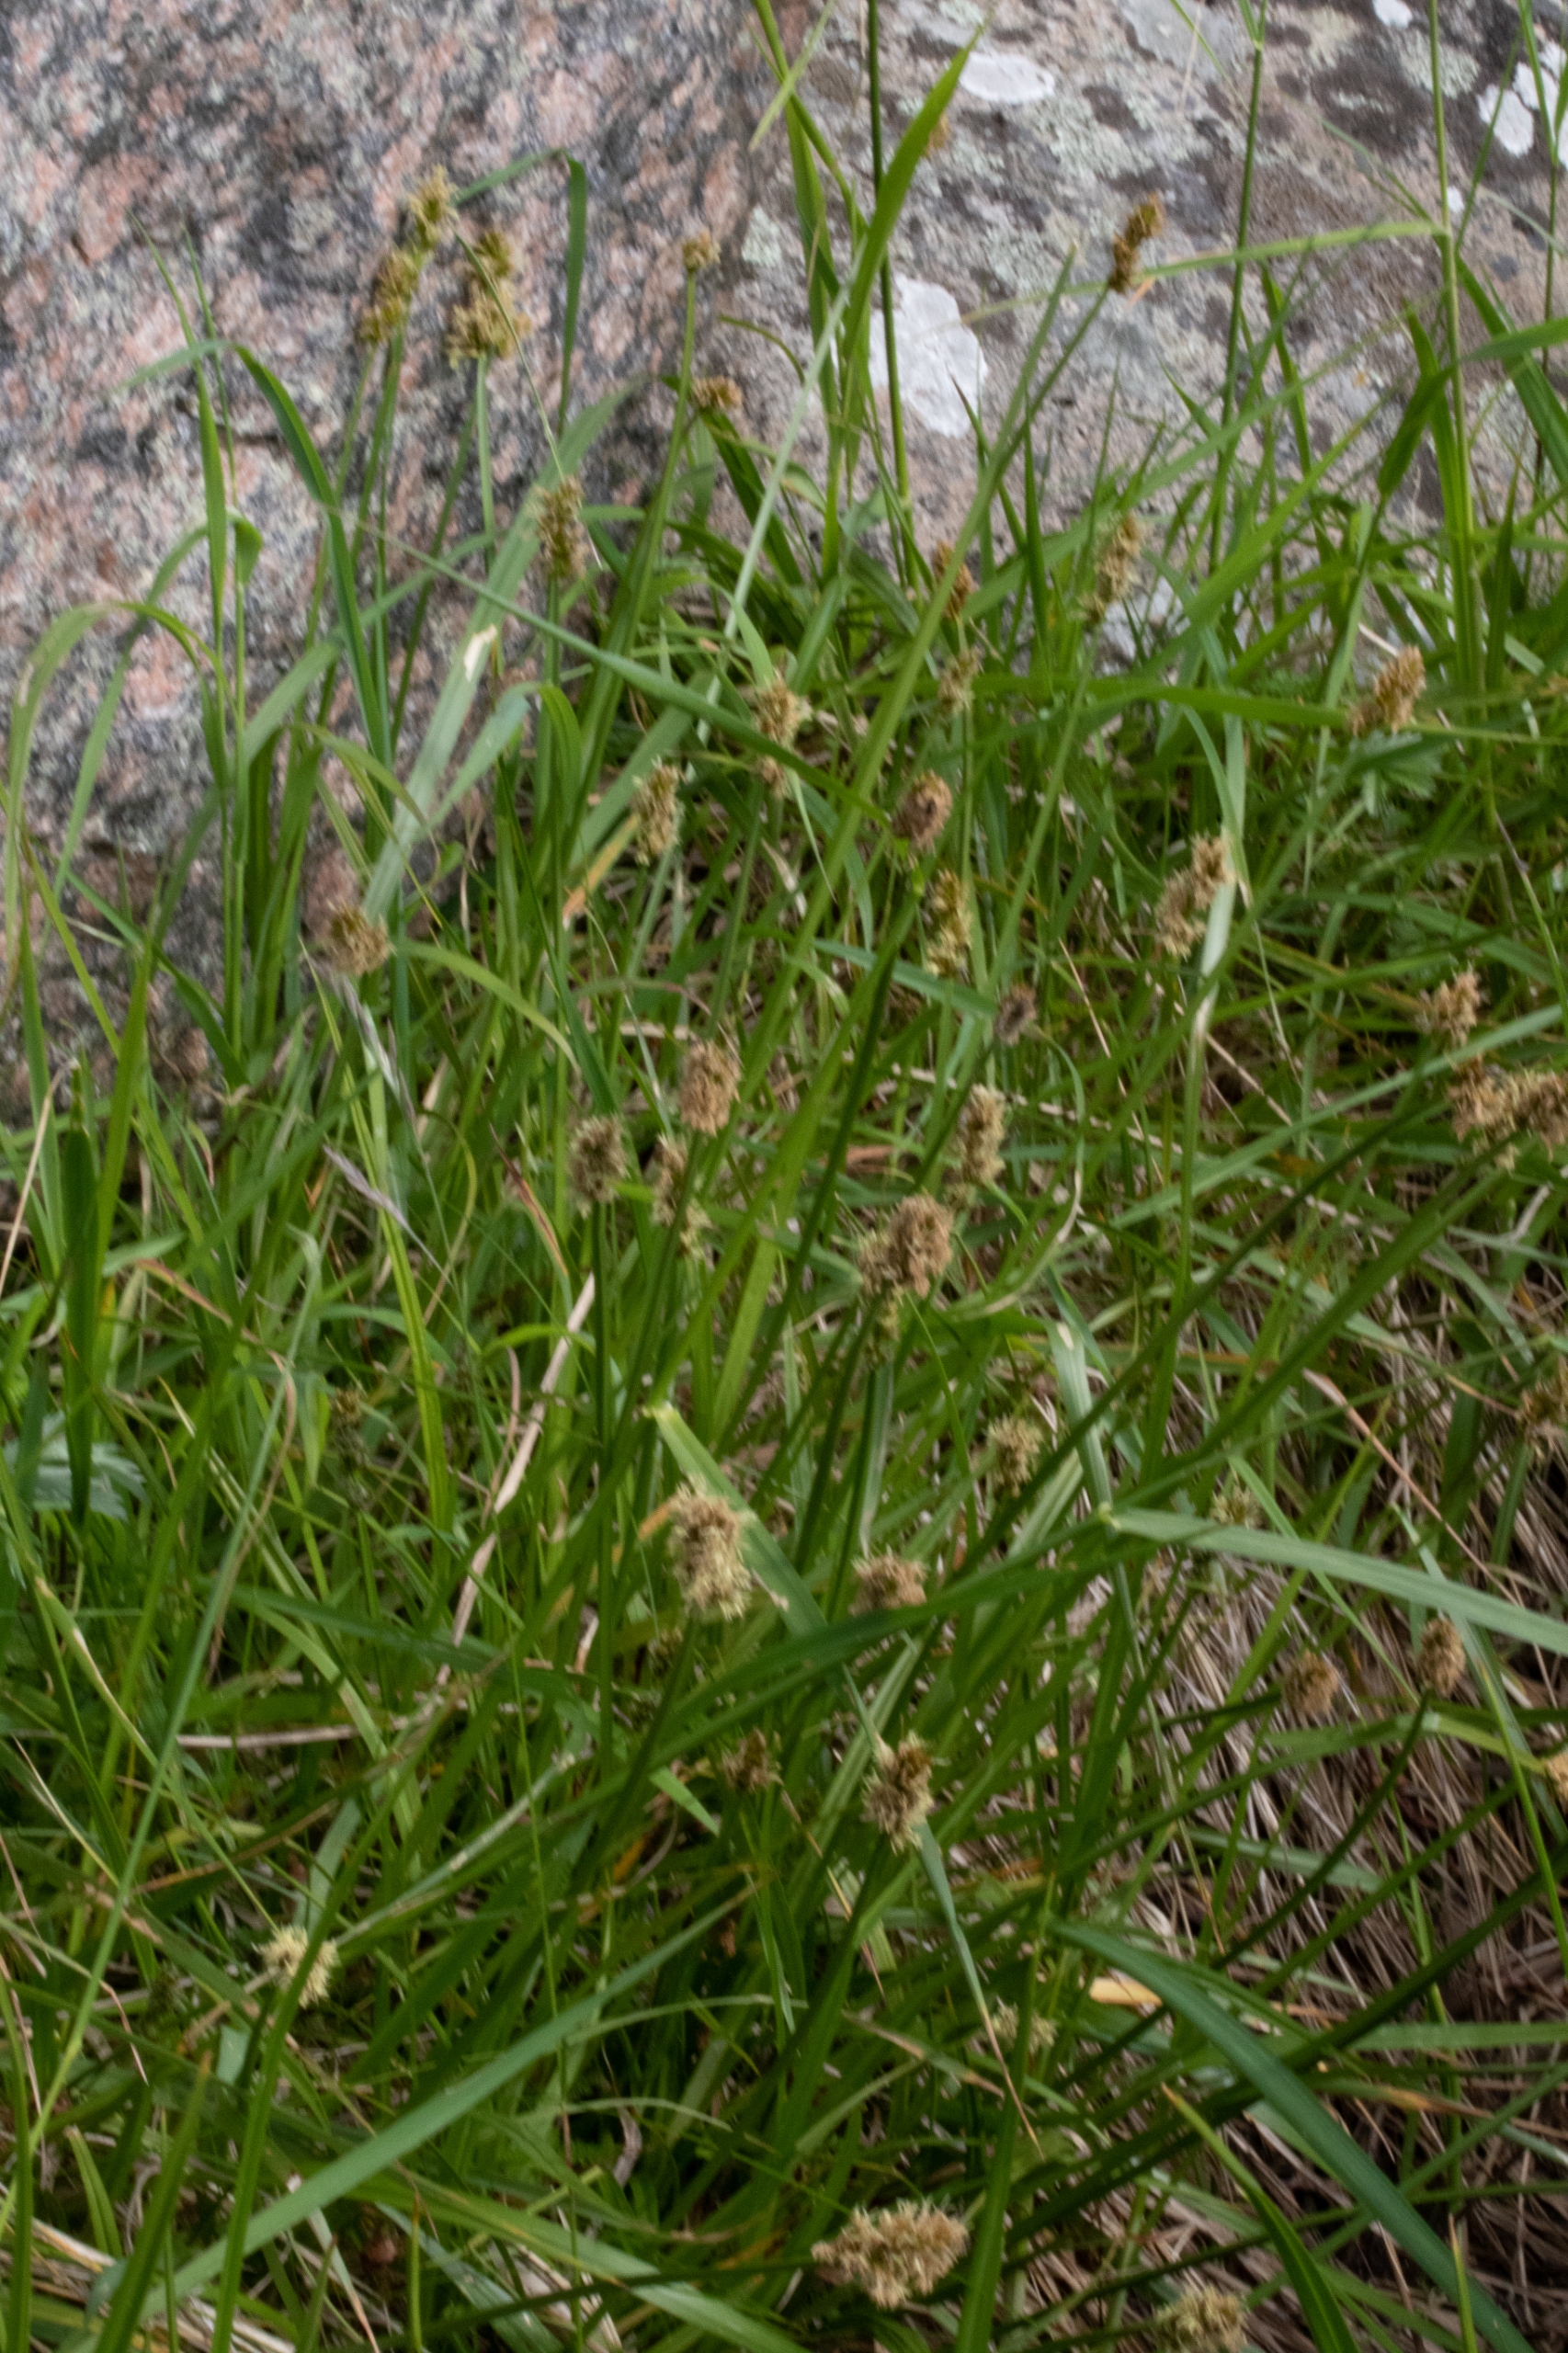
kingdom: Plantae
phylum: Tracheophyta
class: Liliopsida
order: Poales
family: Cyperaceae
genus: Carex
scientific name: Carex disticha
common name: Toradet star
